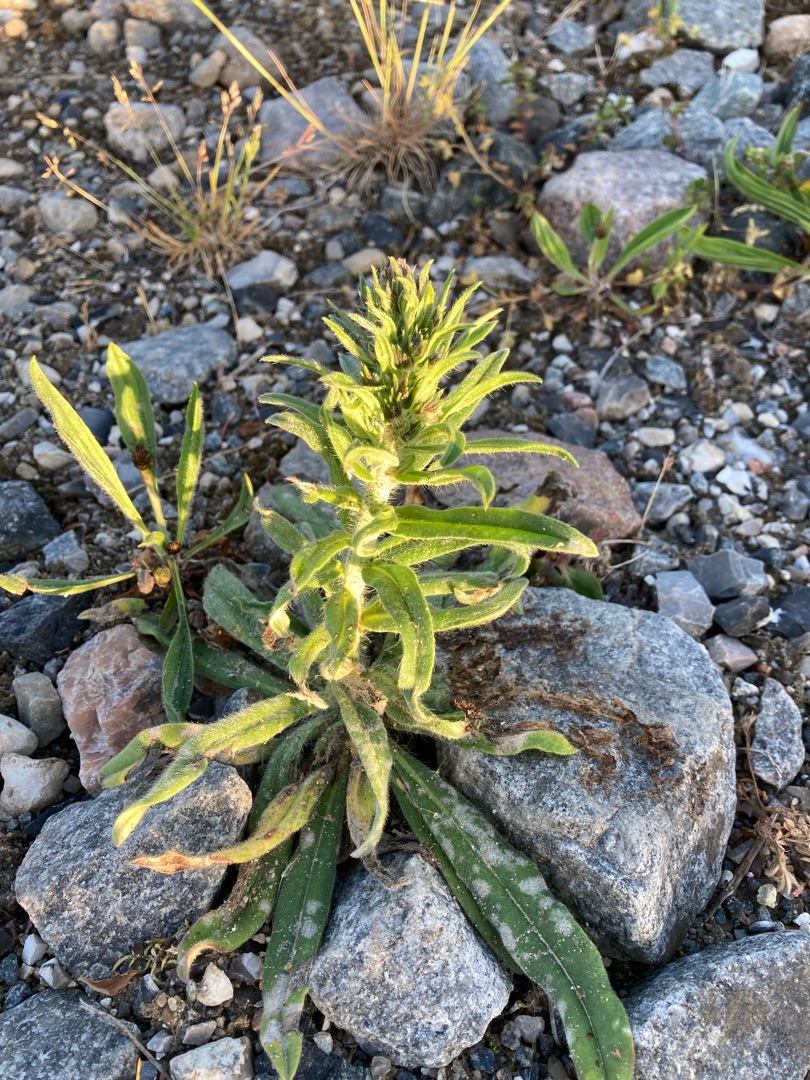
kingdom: Plantae
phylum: Tracheophyta
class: Magnoliopsida
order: Boraginales
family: Boraginaceae
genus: Echium
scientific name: Echium vulgare
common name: Slangehoved
